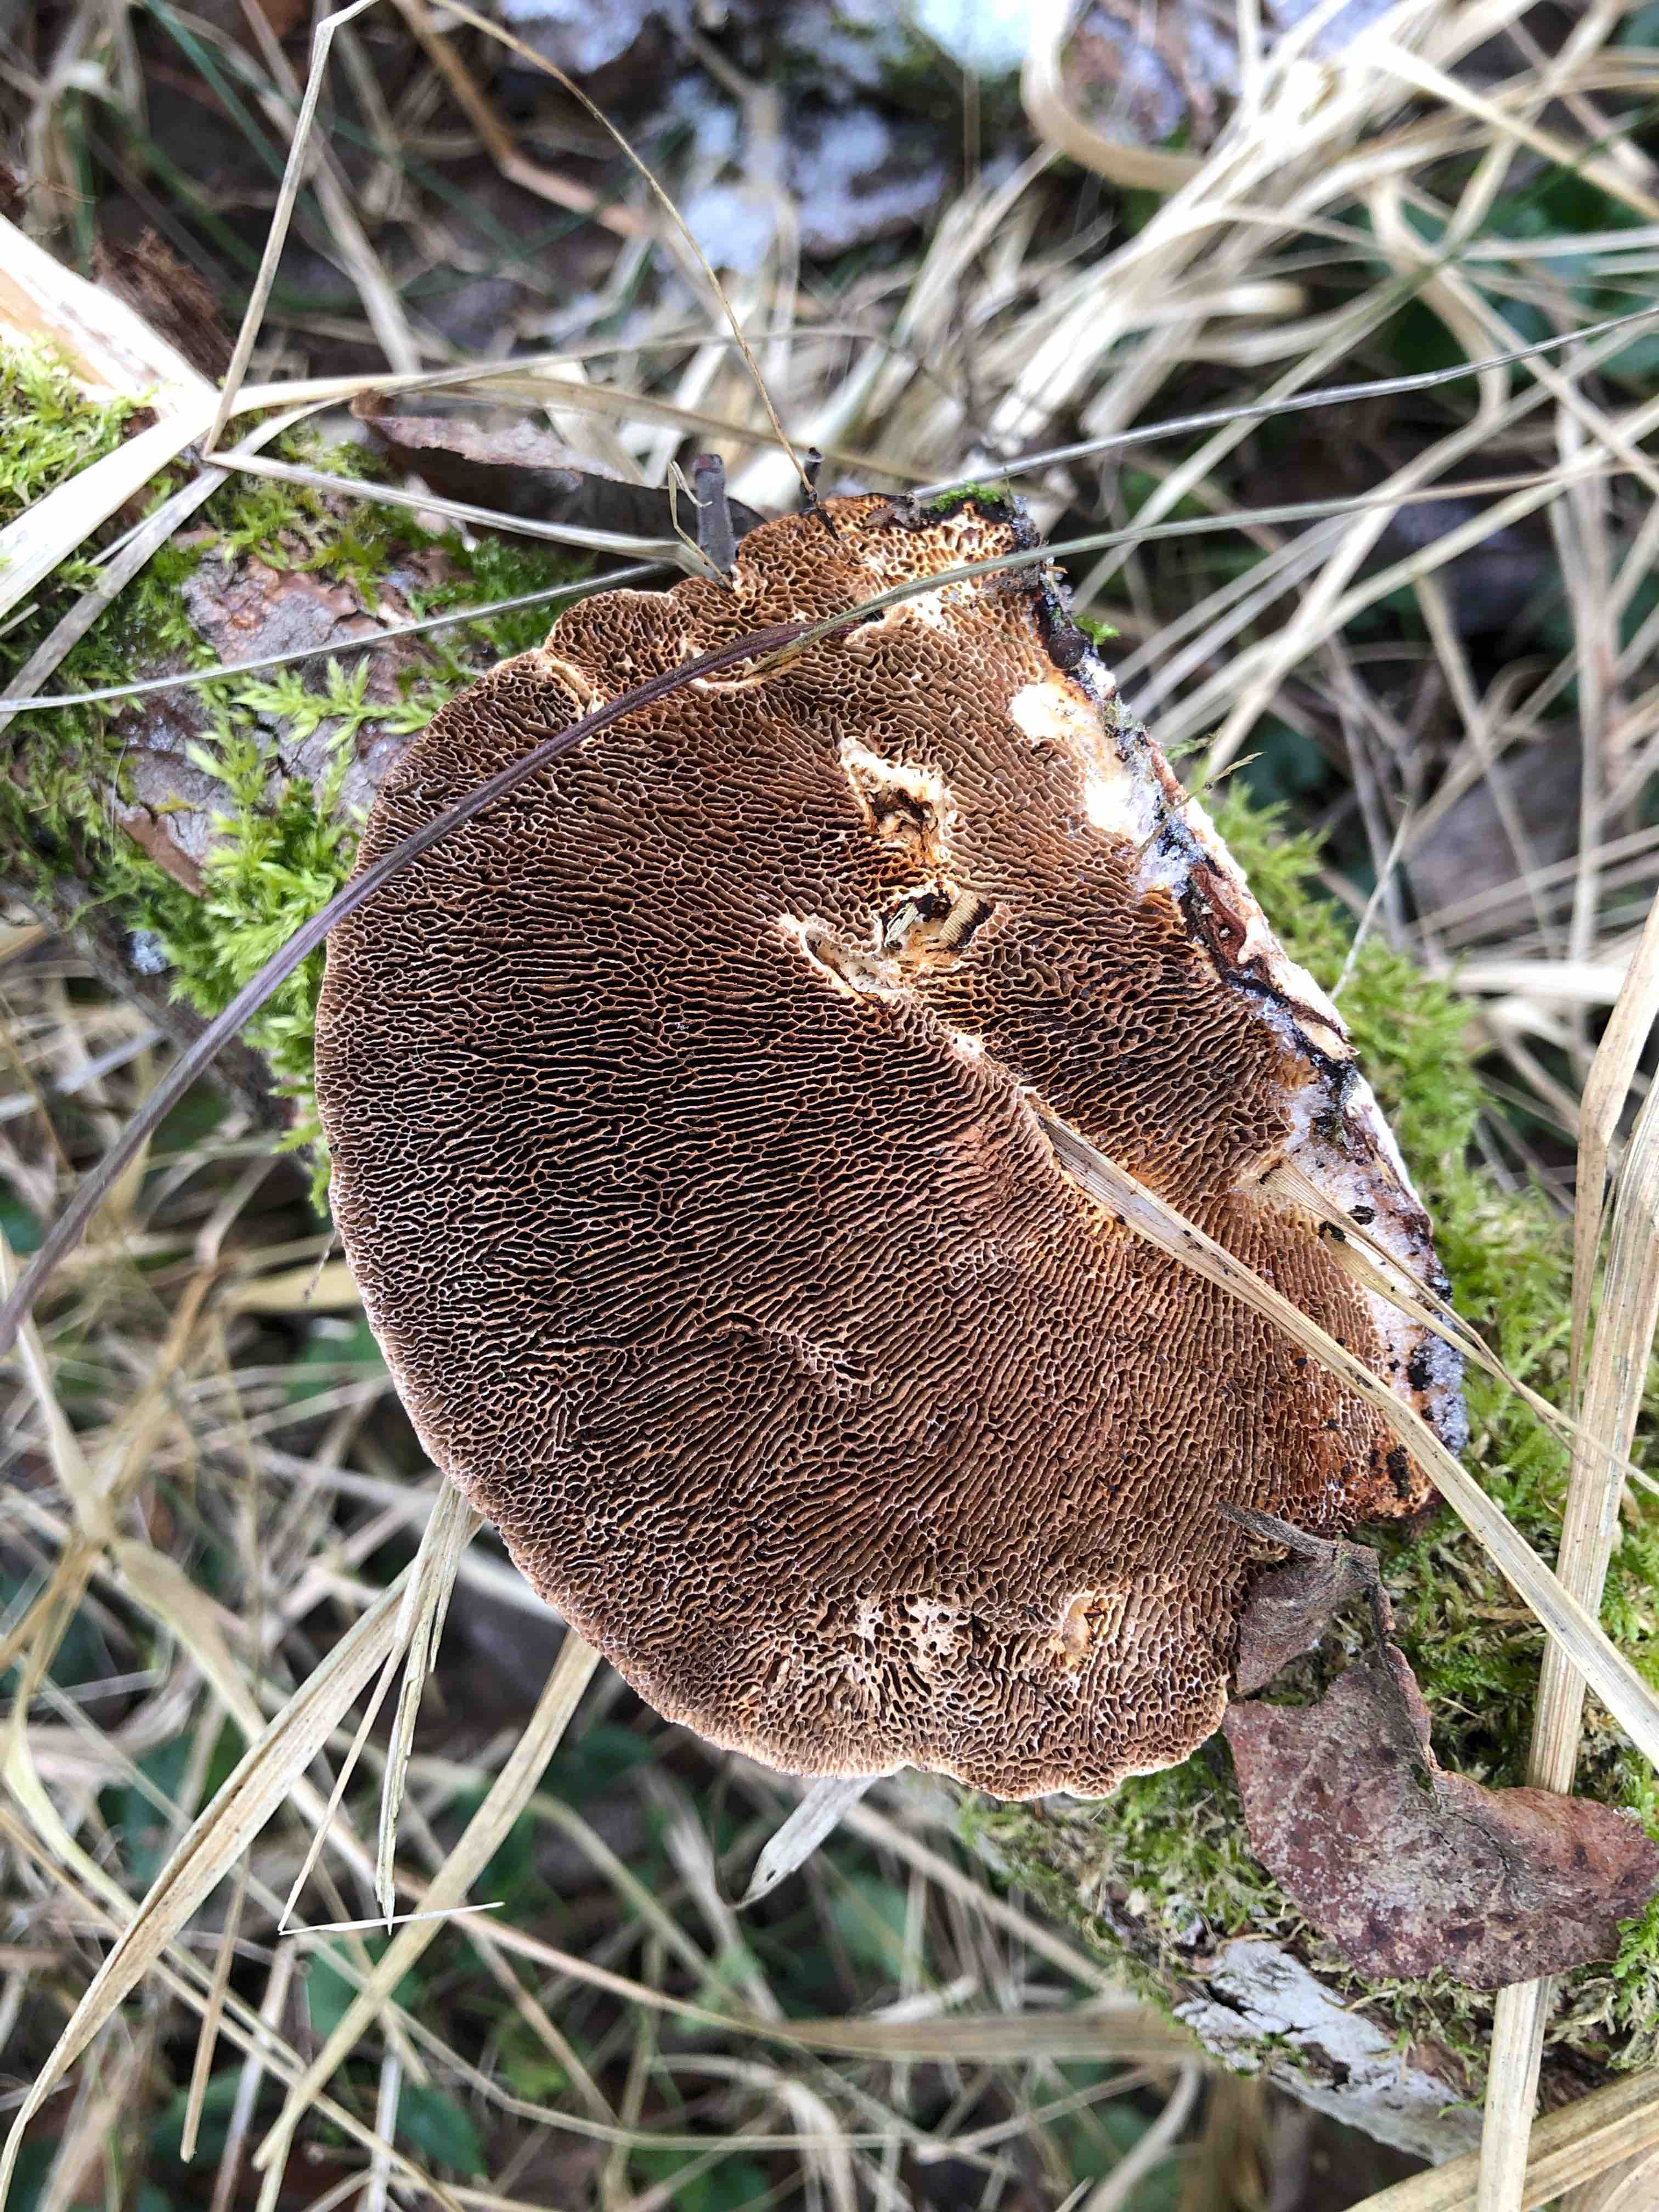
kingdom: Fungi
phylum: Basidiomycota
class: Agaricomycetes
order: Polyporales
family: Polyporaceae
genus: Daedaleopsis
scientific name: Daedaleopsis confragosa
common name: rødmende læderporesvamp
